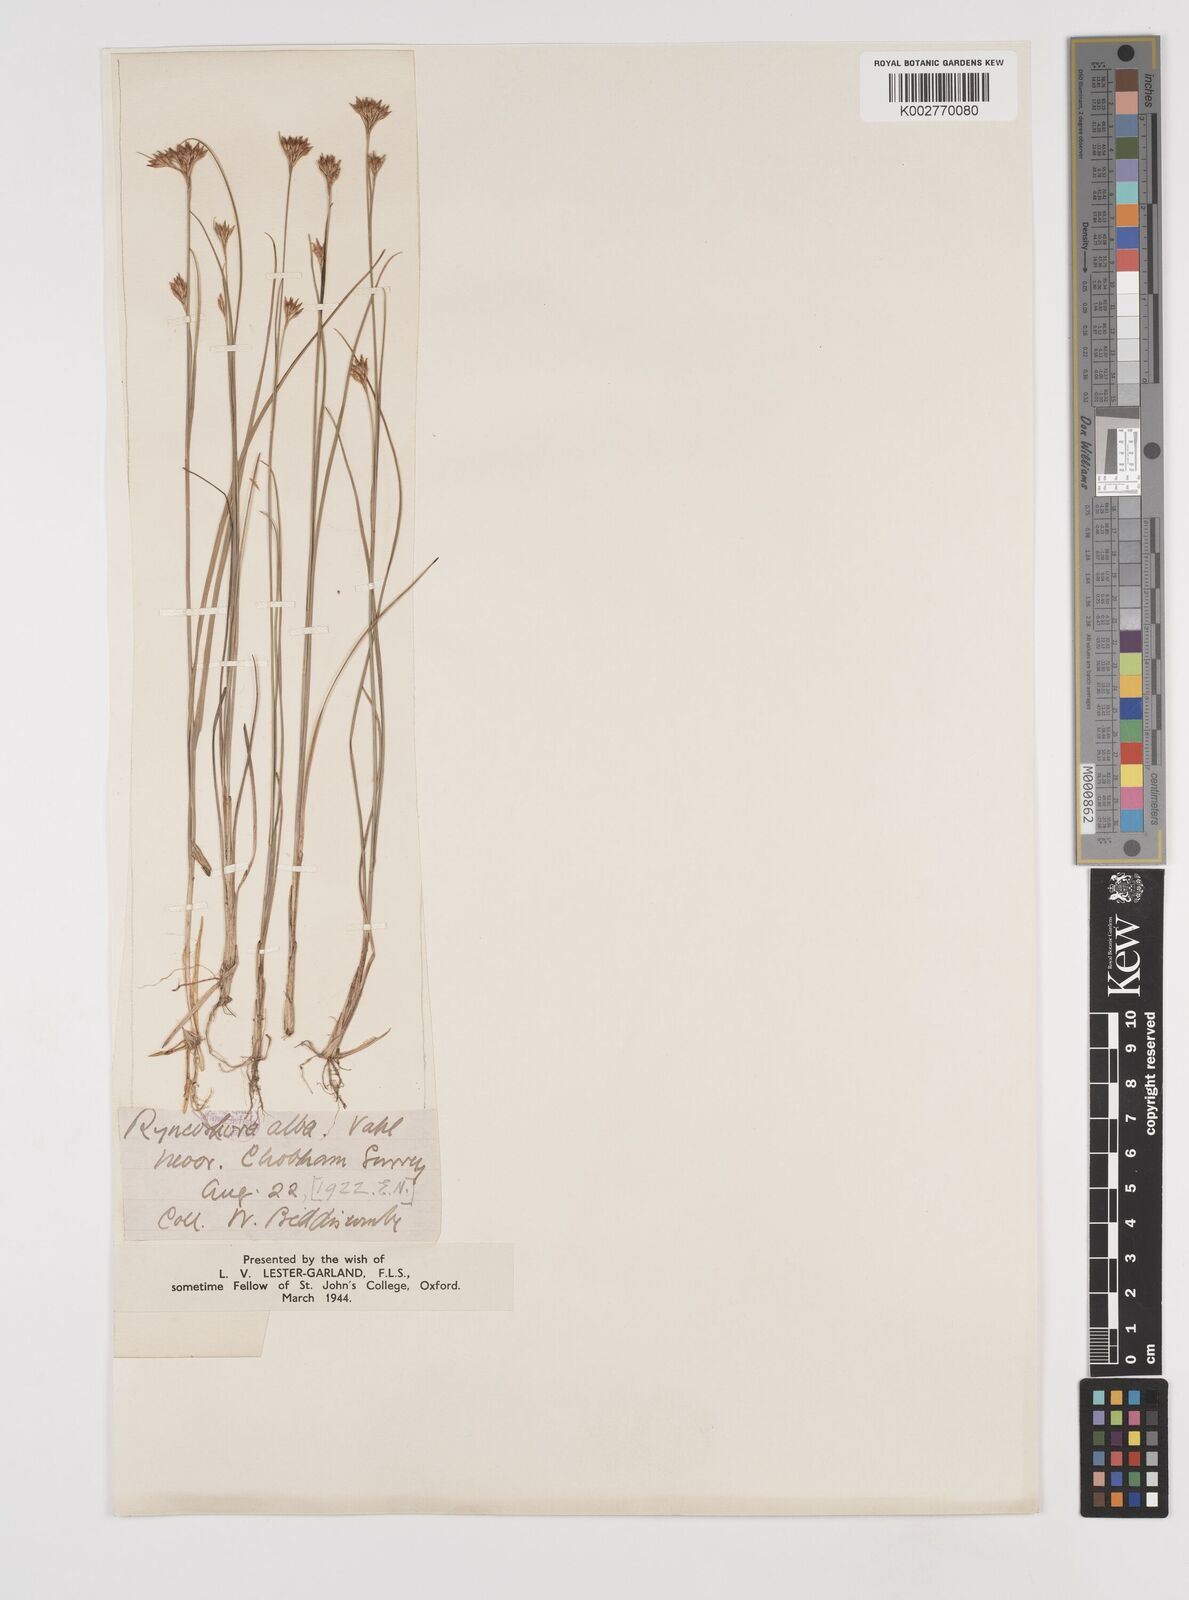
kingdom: Plantae
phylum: Tracheophyta
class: Liliopsida
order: Poales
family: Cyperaceae
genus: Rhynchospora
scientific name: Rhynchospora alba
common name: White beak-sedge
